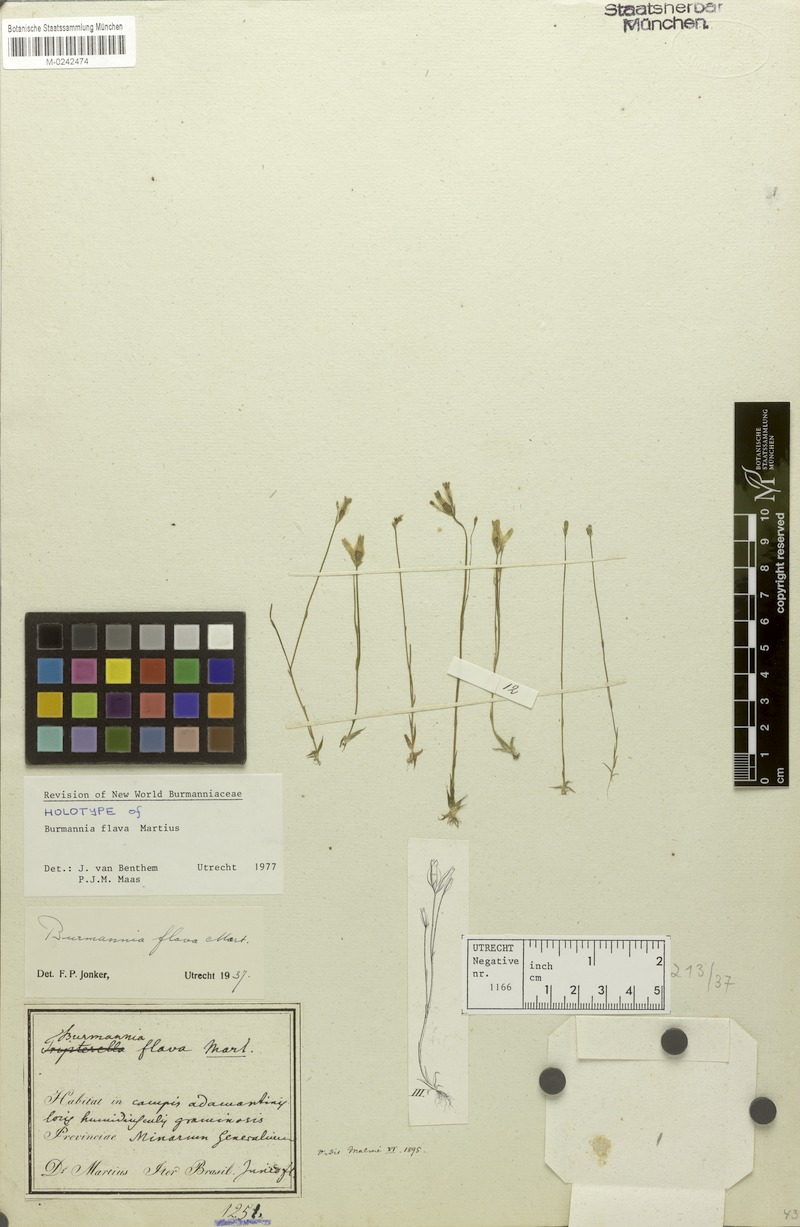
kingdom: Plantae
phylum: Tracheophyta
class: Liliopsida
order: Dioscoreales
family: Burmanniaceae
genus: Burmannia
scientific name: Burmannia flava
